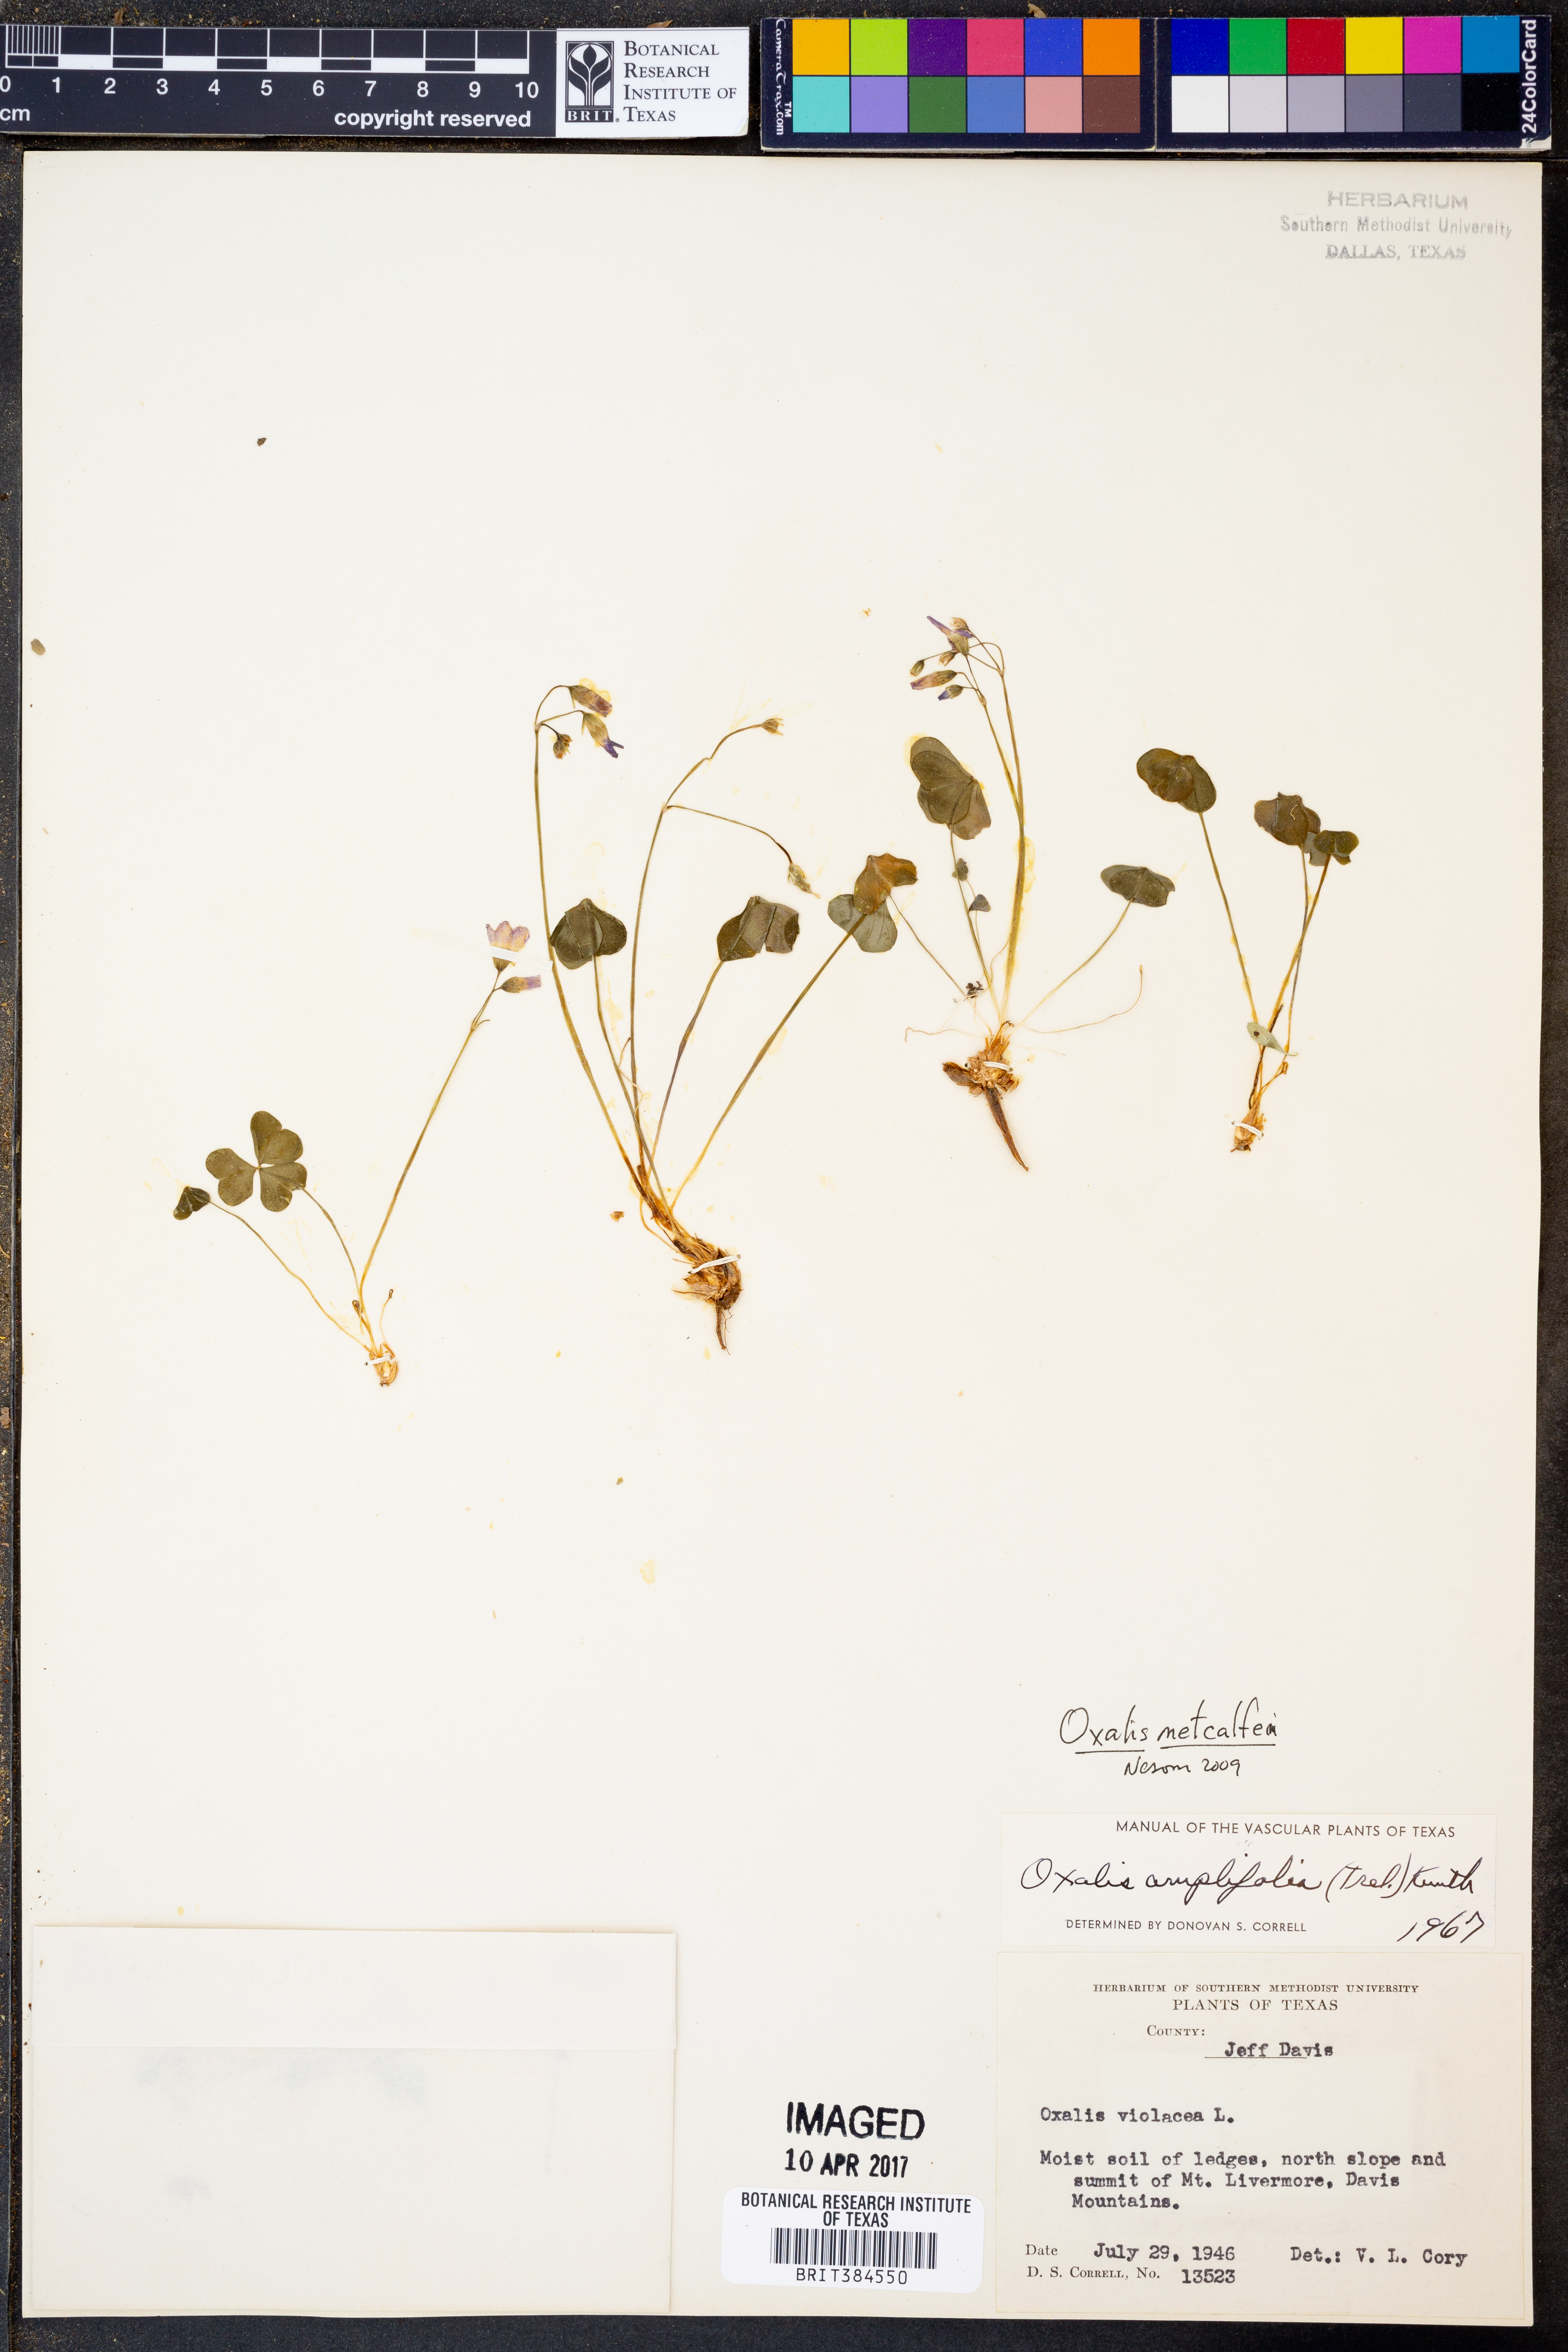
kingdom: Plantae
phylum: Tracheophyta
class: Magnoliopsida
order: Oxalidales
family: Oxalidaceae
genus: Oxalis
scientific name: Oxalis metcalfei
